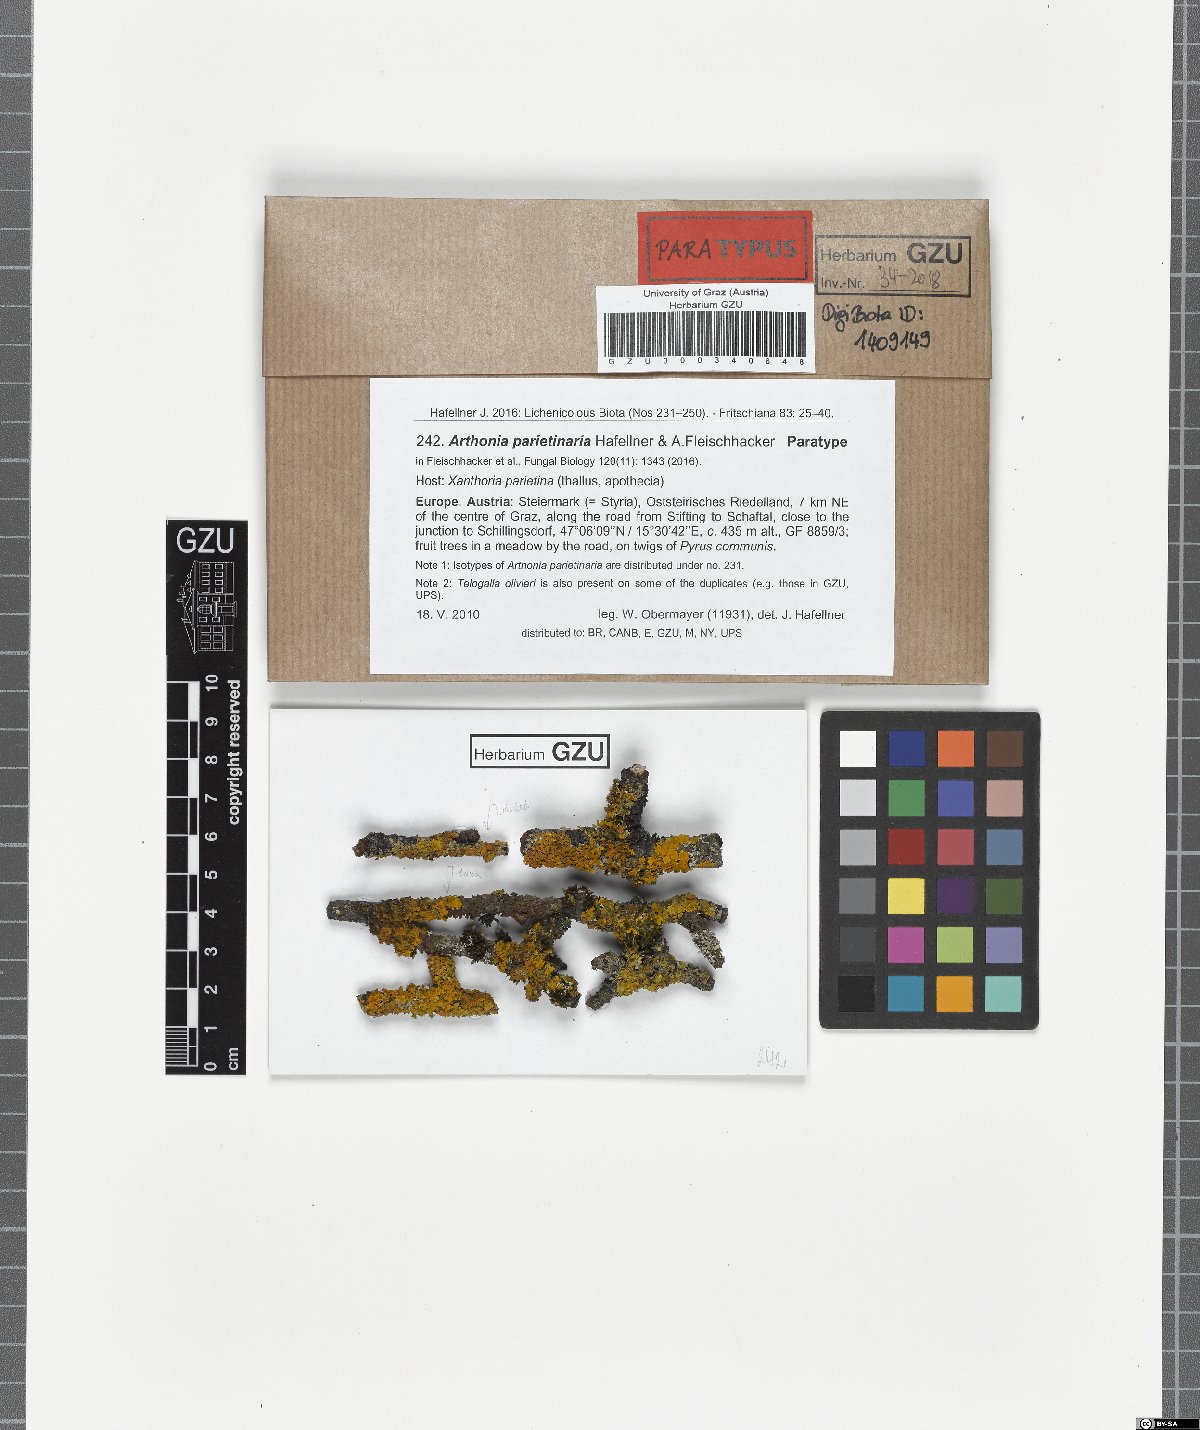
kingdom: Fungi
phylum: Ascomycota
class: Arthoniomycetes
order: Arthoniales
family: Arthoniaceae
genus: Bryostigma
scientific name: Bryostigma parietinarium
